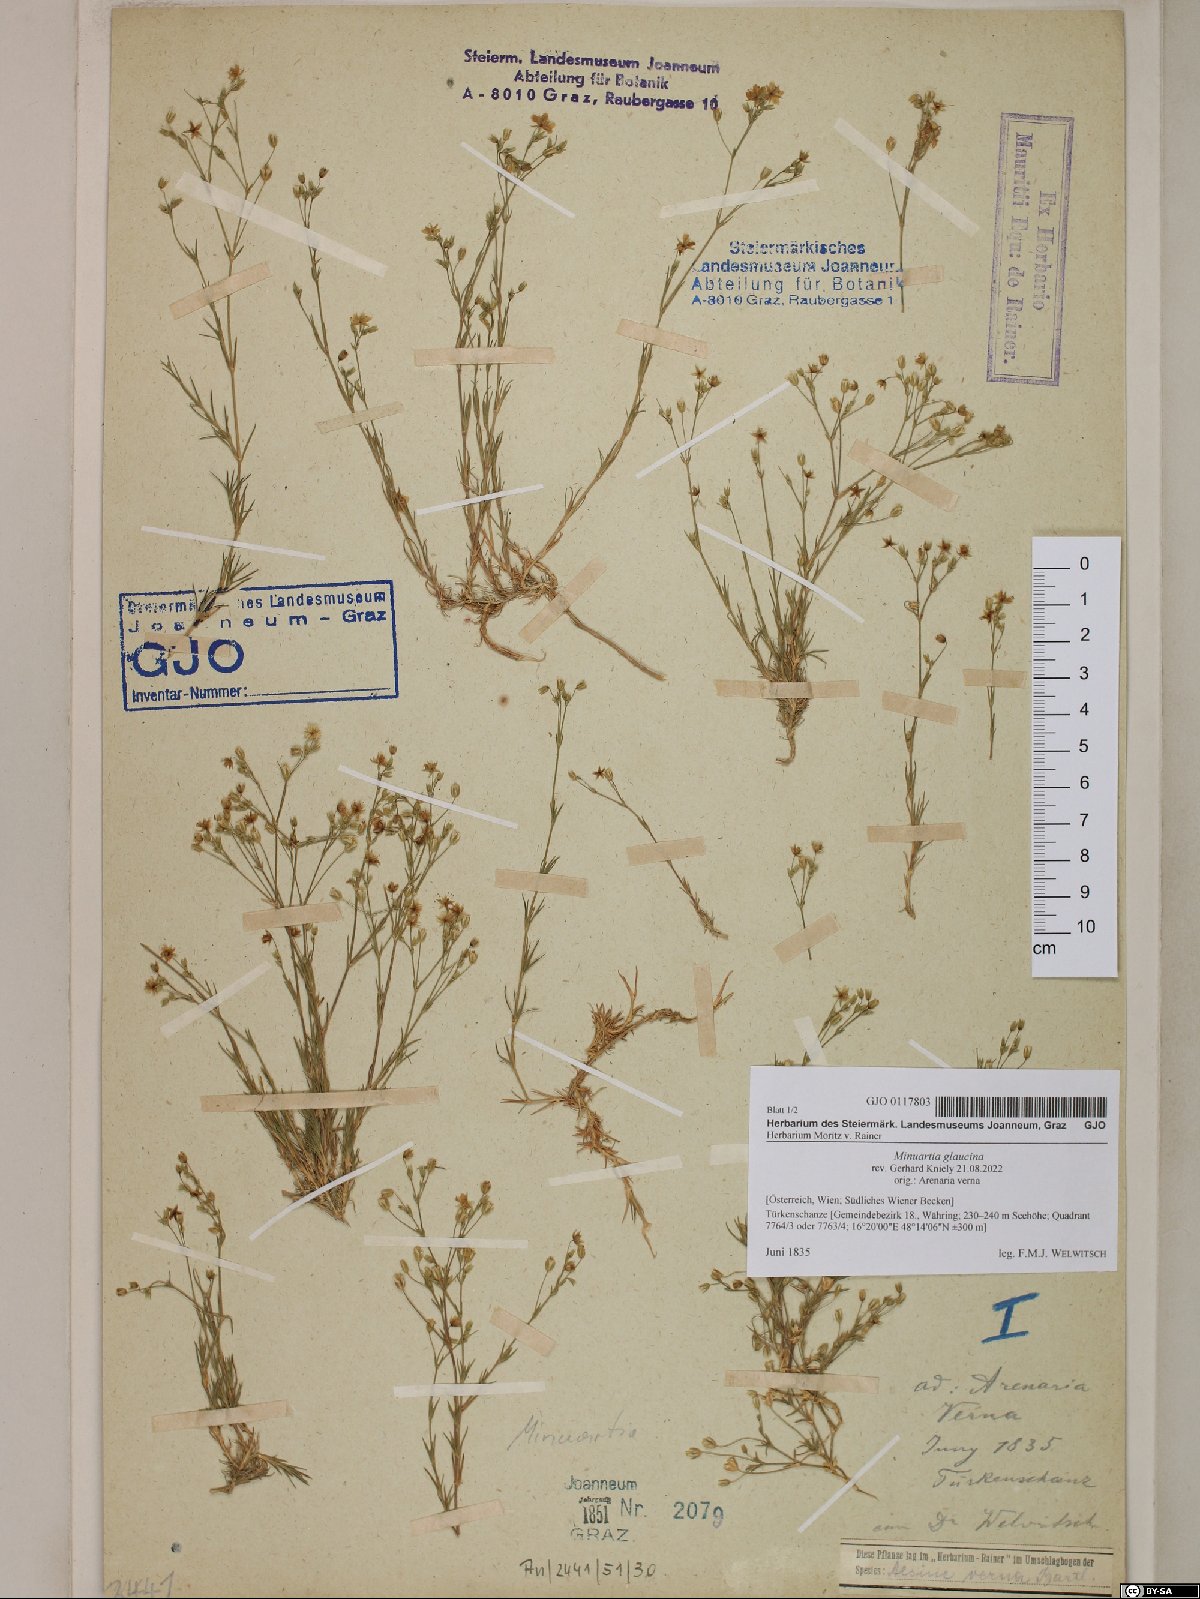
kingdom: Plantae
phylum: Tracheophyta
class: Magnoliopsida
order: Caryophyllales
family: Caryophyllaceae
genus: Sabulina
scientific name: Sabulina glaucina
